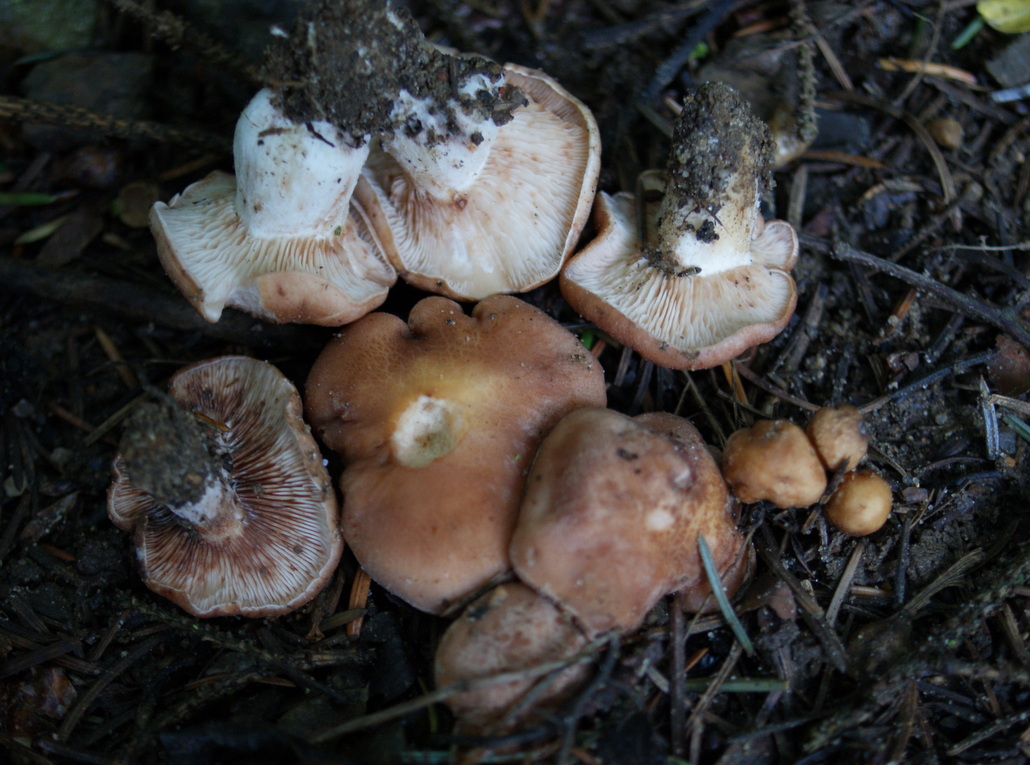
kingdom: Fungi
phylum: Basidiomycota
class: Agaricomycetes
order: Agaricales
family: Entolomataceae
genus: Clitopilus
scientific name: Clitopilus geminus
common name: kødfarvet troldhat
